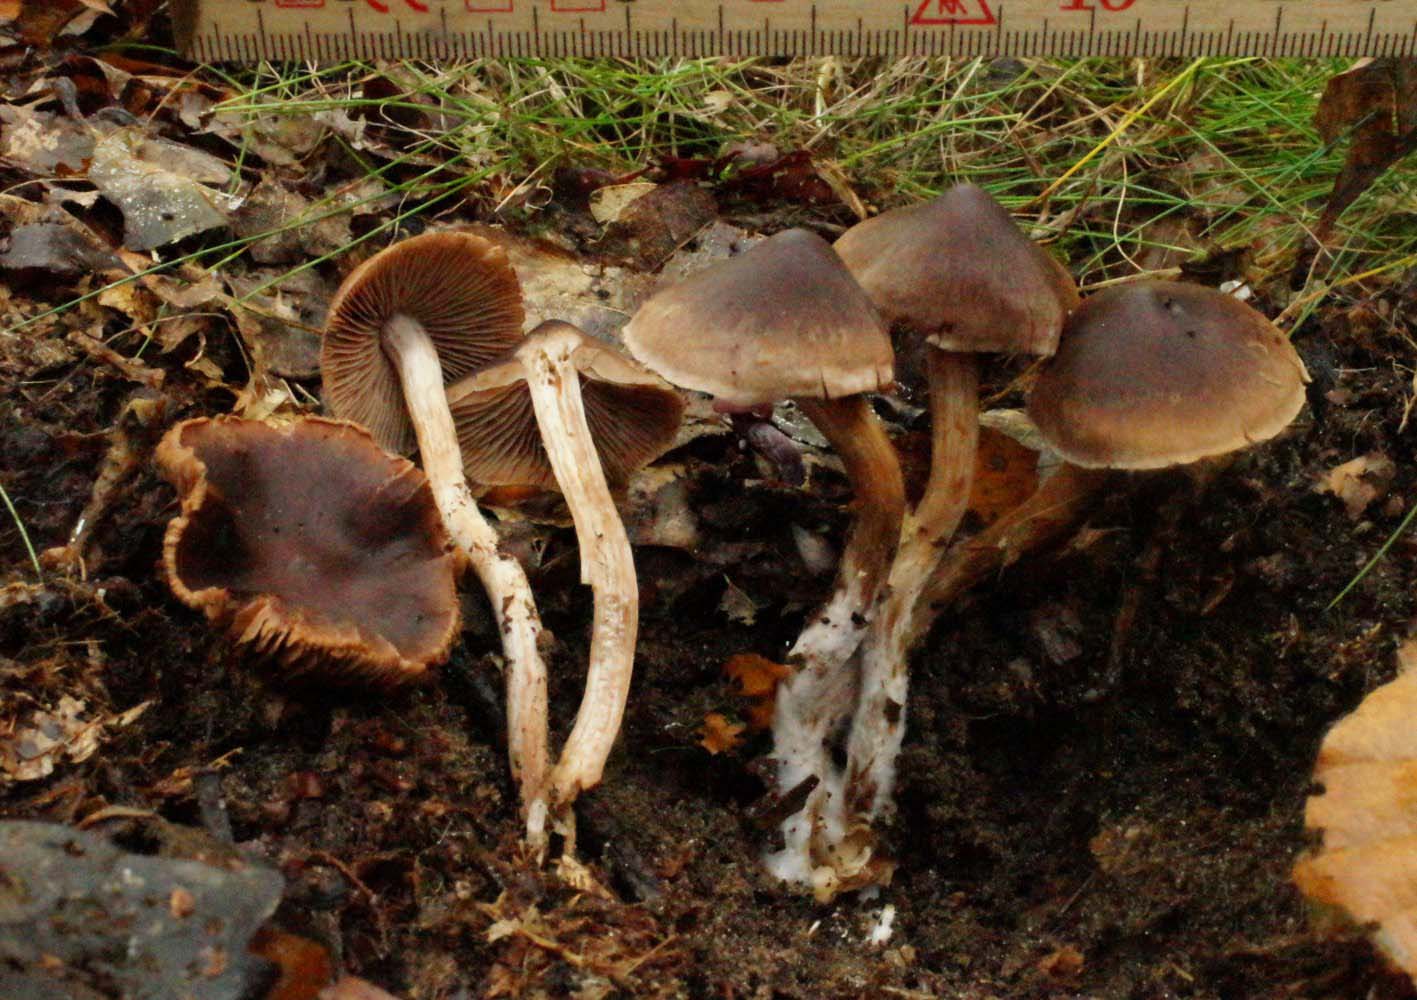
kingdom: Fungi
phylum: Basidiomycota
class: Agaricomycetes
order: Agaricales
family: Cortinariaceae
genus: Cortinarius
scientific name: Cortinarius inconspicuus
